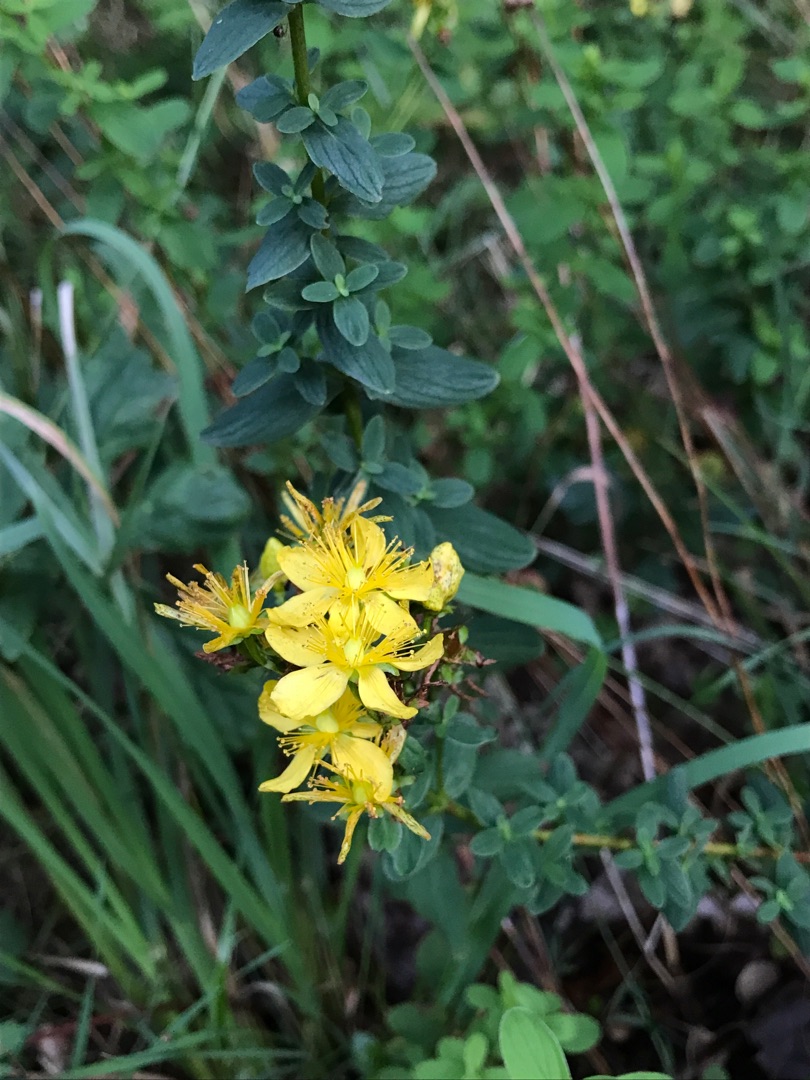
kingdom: Plantae
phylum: Tracheophyta
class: Magnoliopsida
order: Malpighiales
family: Hypericaceae
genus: Hypericum
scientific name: Hypericum
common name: Perikonslægten
